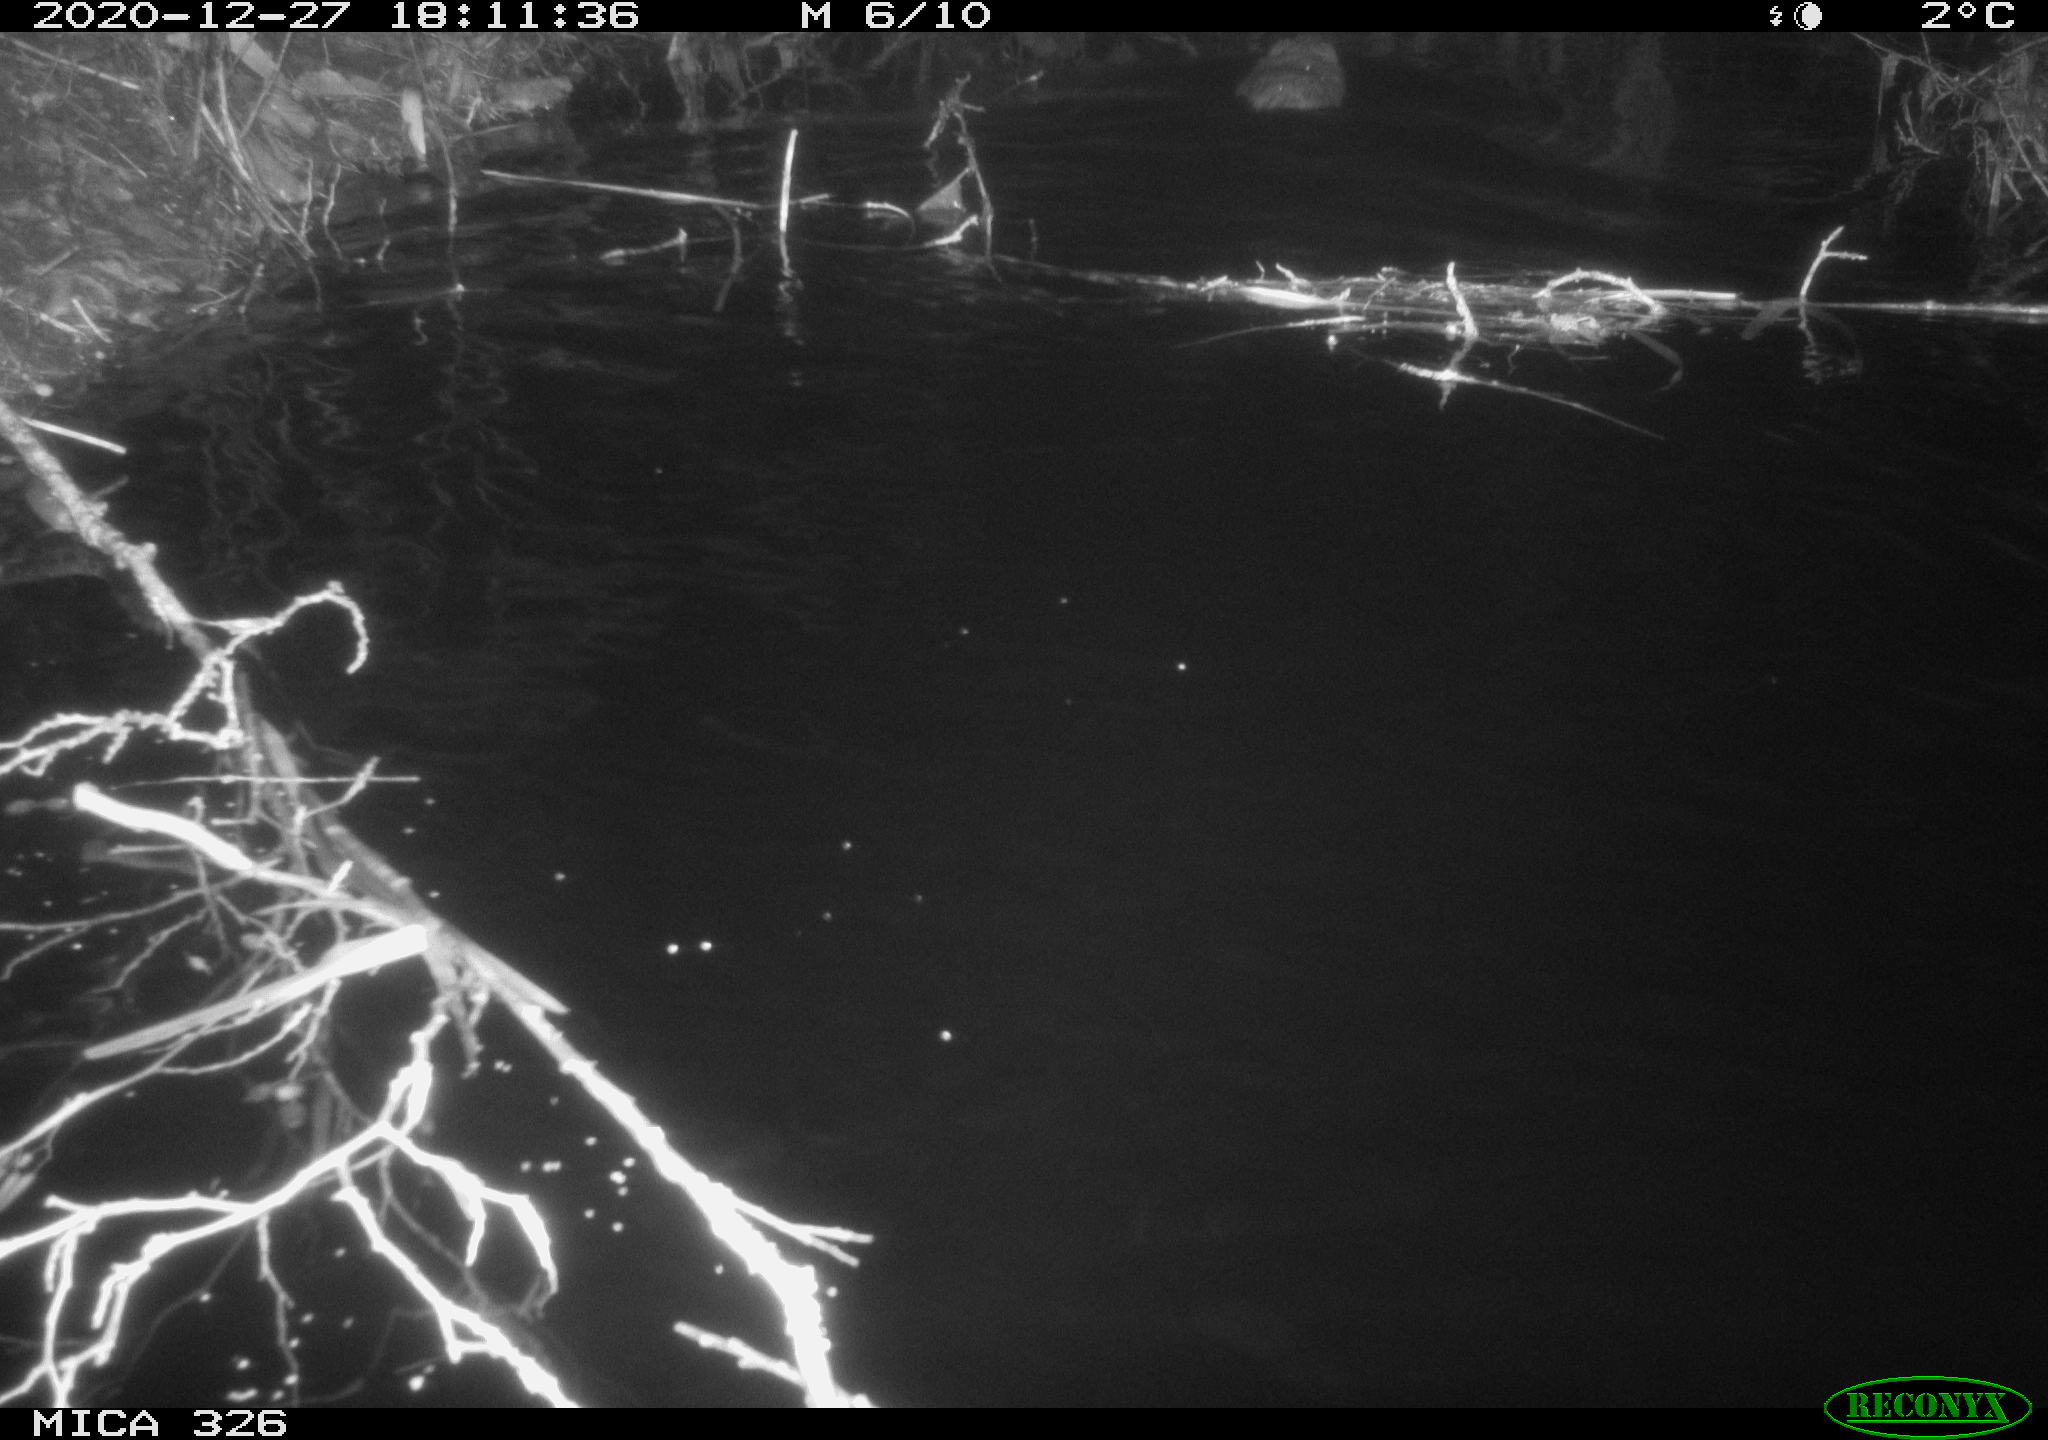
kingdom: Animalia
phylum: Chordata
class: Mammalia
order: Rodentia
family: Cricetidae
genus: Ondatra
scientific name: Ondatra zibethicus
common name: Muskrat
